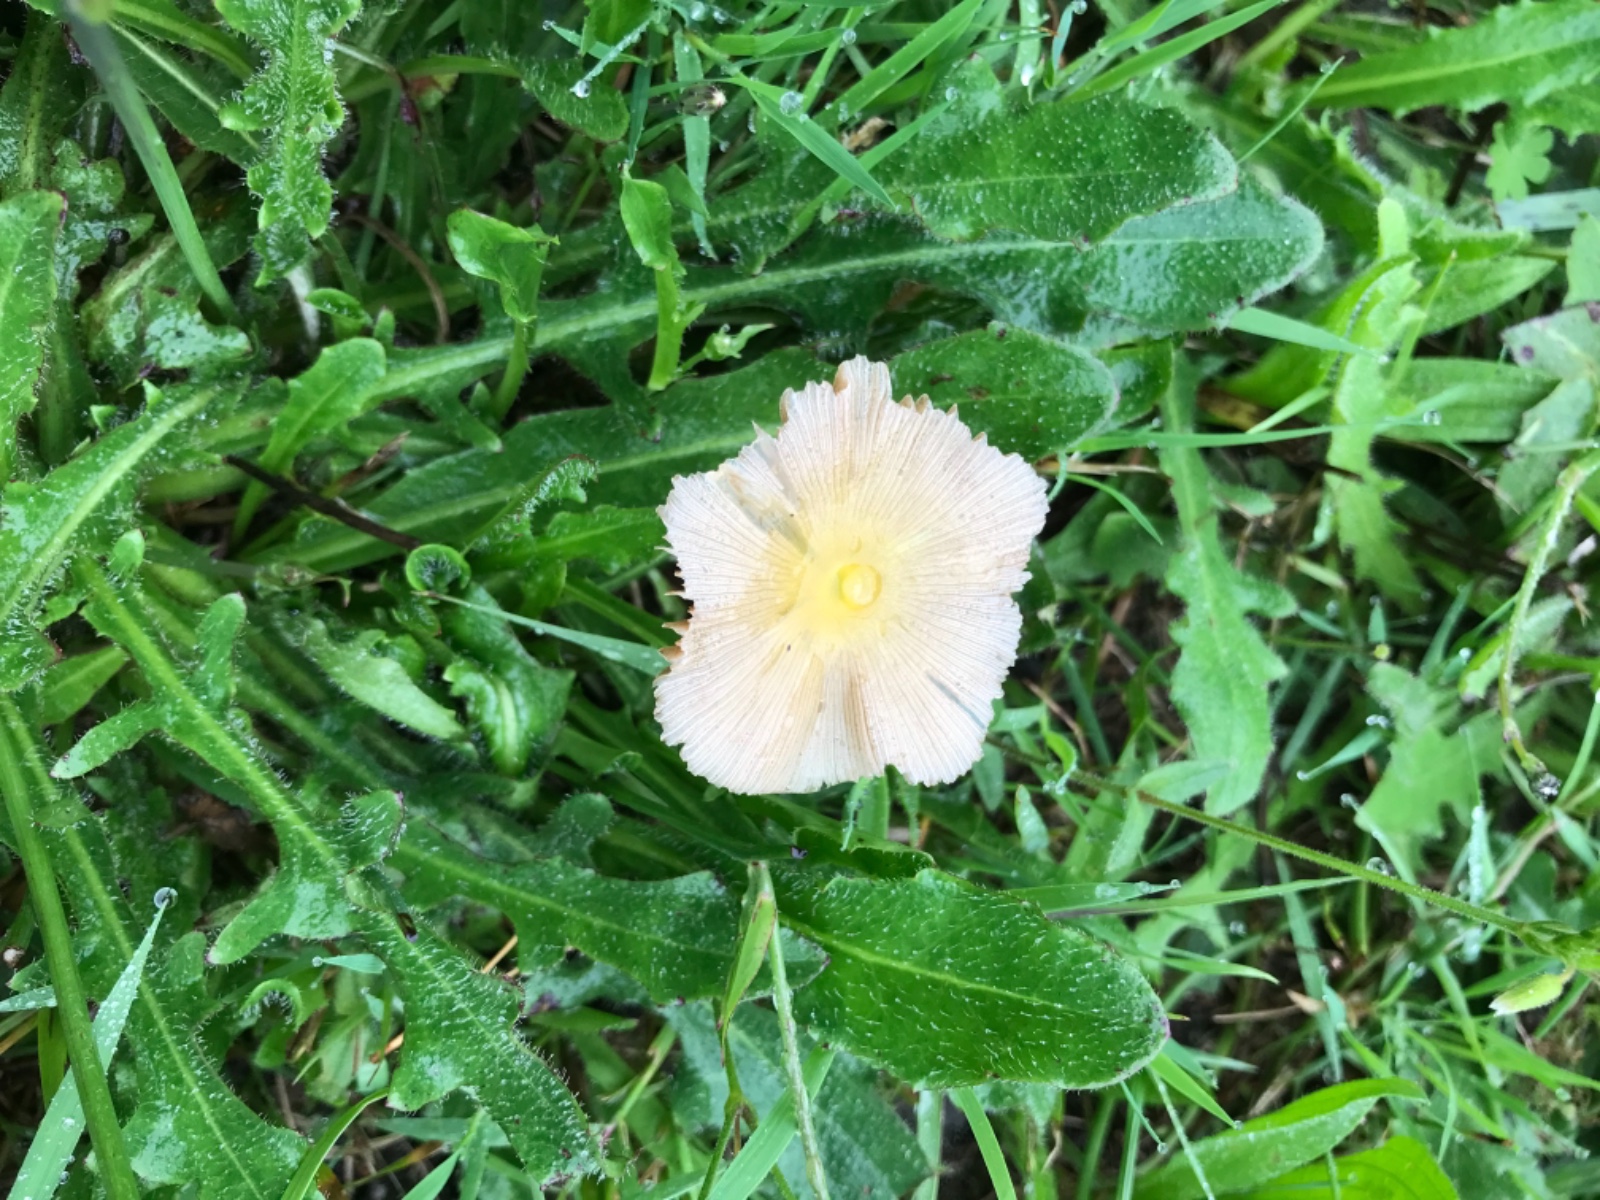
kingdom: Fungi
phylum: Basidiomycota
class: Agaricomycetes
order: Agaricales
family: Bolbitiaceae
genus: Bolbitius
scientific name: Bolbitius titubans
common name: almindelig gulhat
